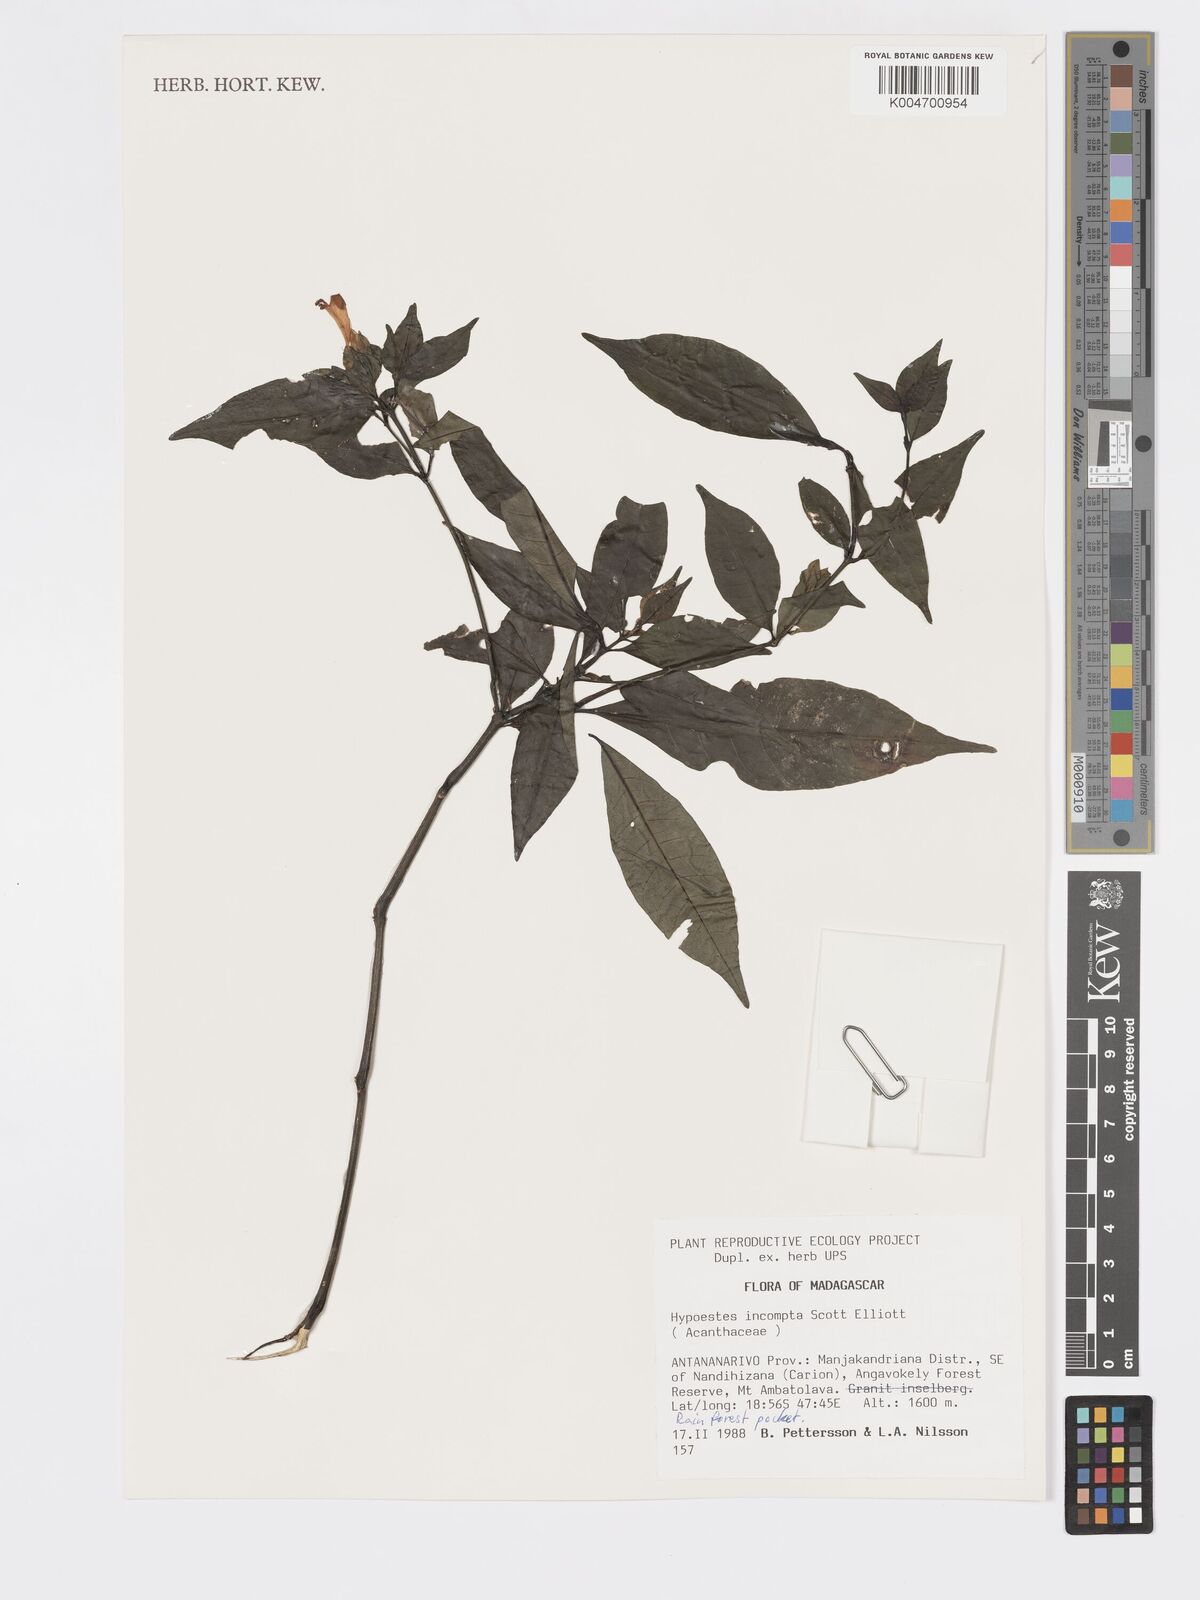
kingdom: Plantae
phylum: Tracheophyta
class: Magnoliopsida
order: Lamiales
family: Acanthaceae
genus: Hypoestes
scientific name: Hypoestes
